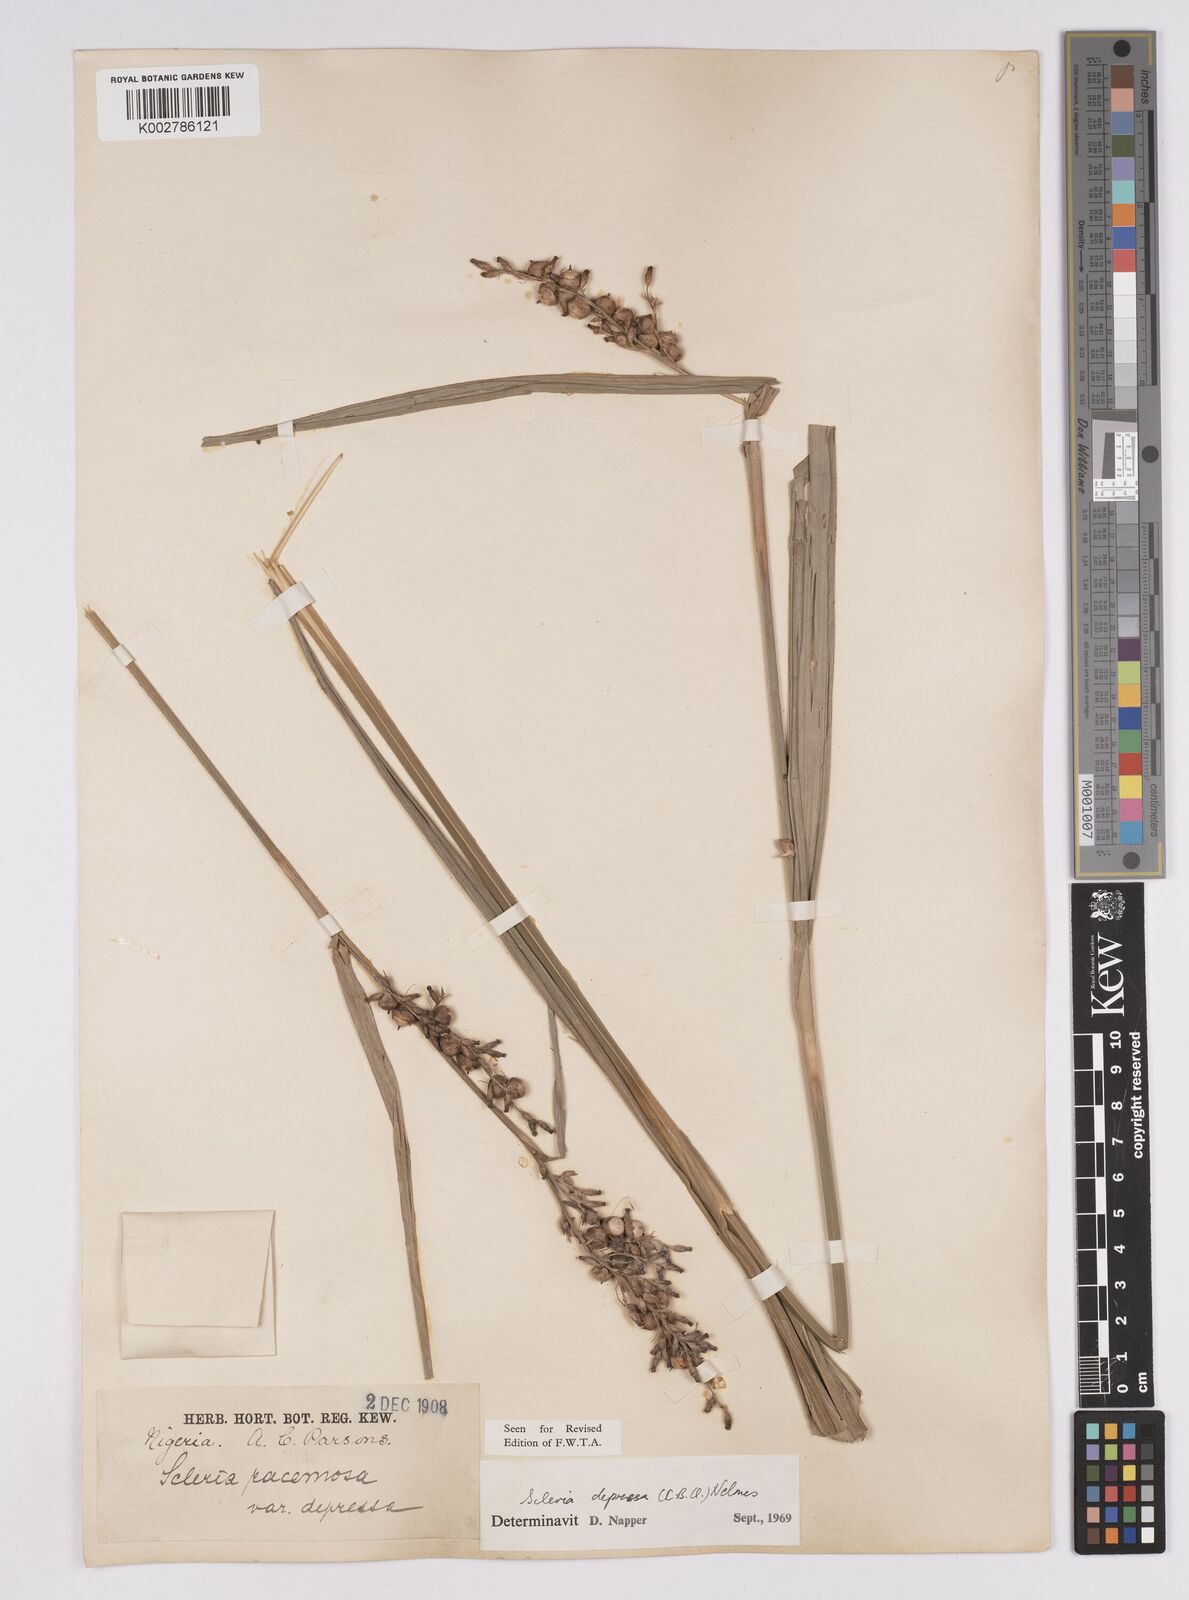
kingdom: Plantae
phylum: Tracheophyta
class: Liliopsida
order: Poales
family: Cyperaceae
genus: Scleria
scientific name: Scleria depressa
